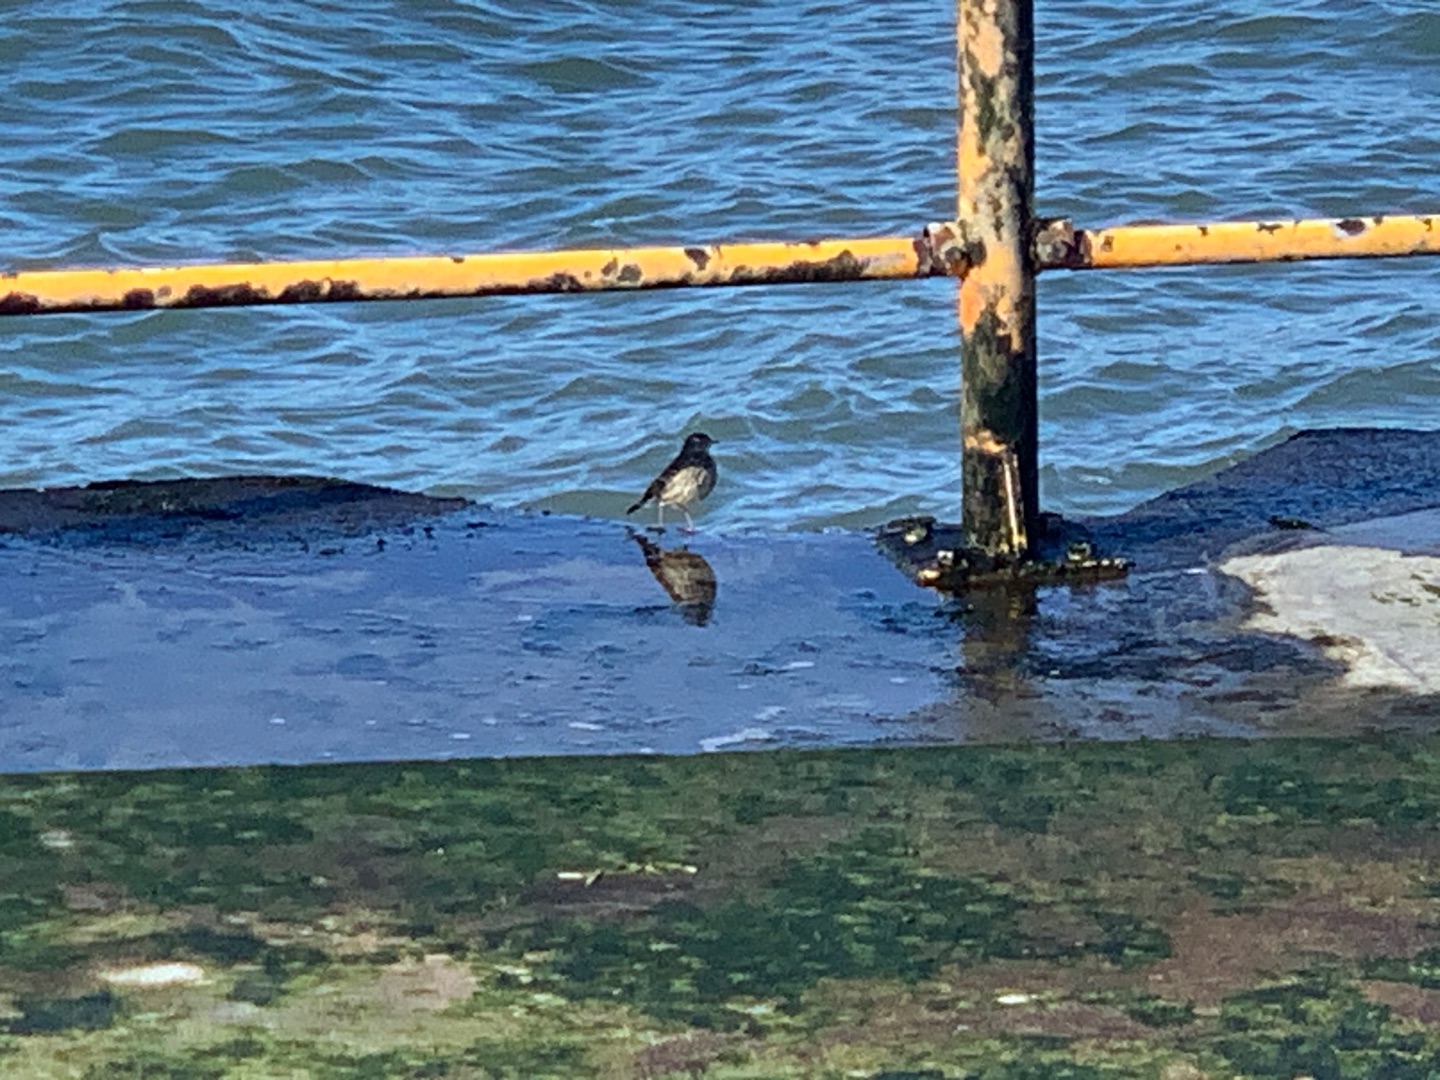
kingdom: Animalia
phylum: Chordata
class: Aves
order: Passeriformes
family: Motacillidae
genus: Anthus
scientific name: Anthus petrosus
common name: Skærpiber
